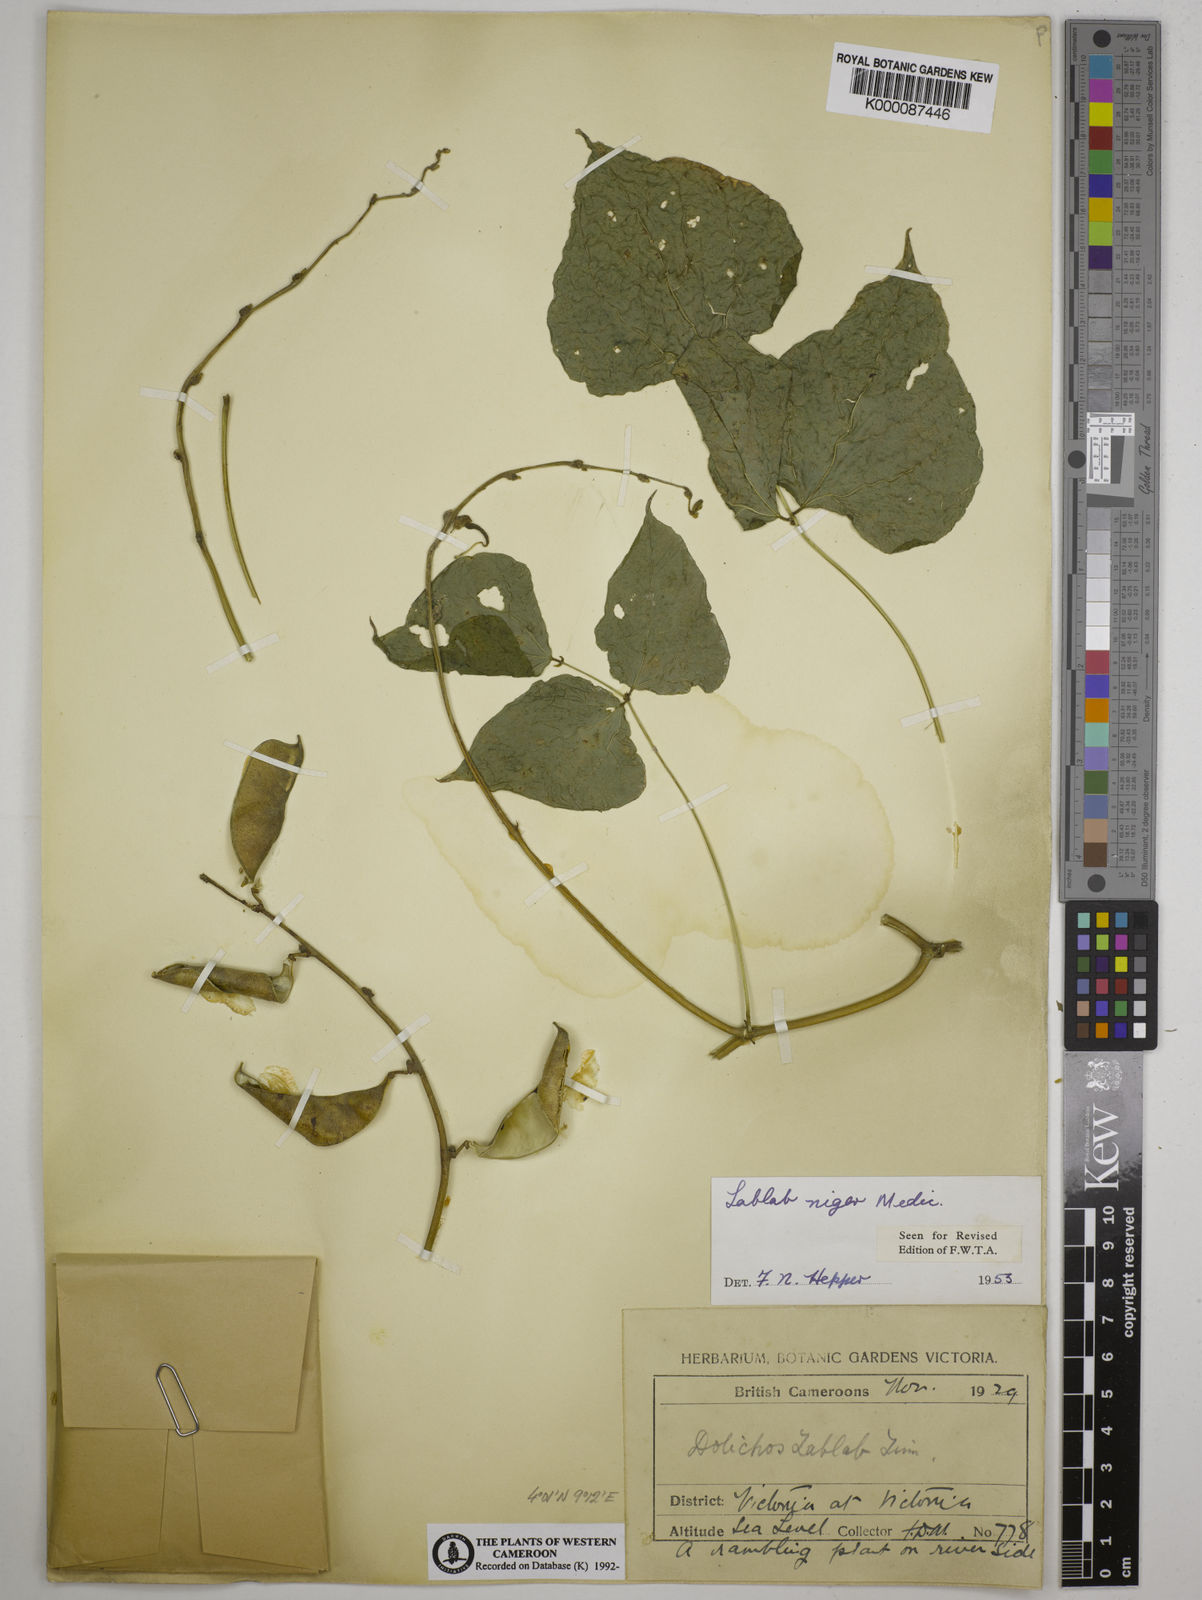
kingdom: Plantae
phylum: Tracheophyta
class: Magnoliopsida
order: Fabales
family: Fabaceae
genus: Lablab
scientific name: Lablab purpureus
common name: Lablab-bean
